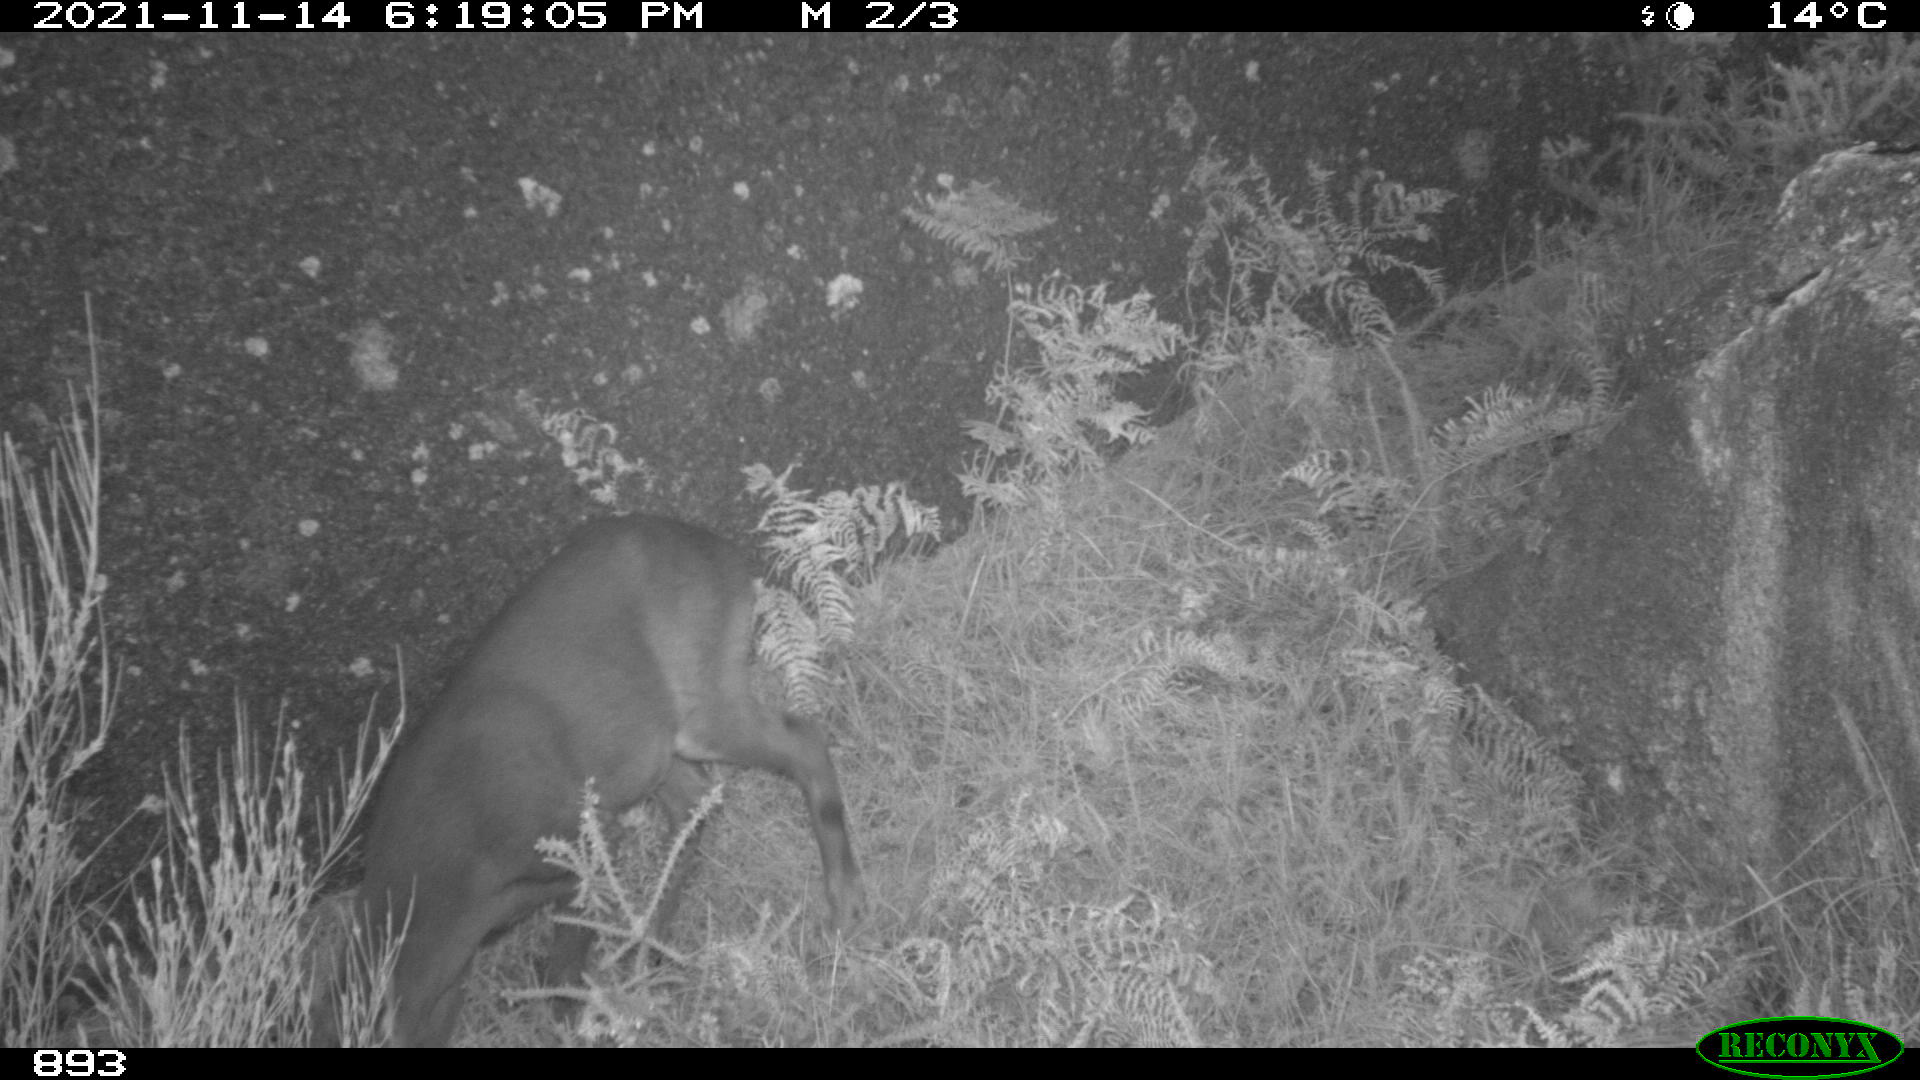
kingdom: Animalia
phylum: Chordata
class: Mammalia
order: Artiodactyla
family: Cervidae
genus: Capreolus
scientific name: Capreolus capreolus
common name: Western roe deer
